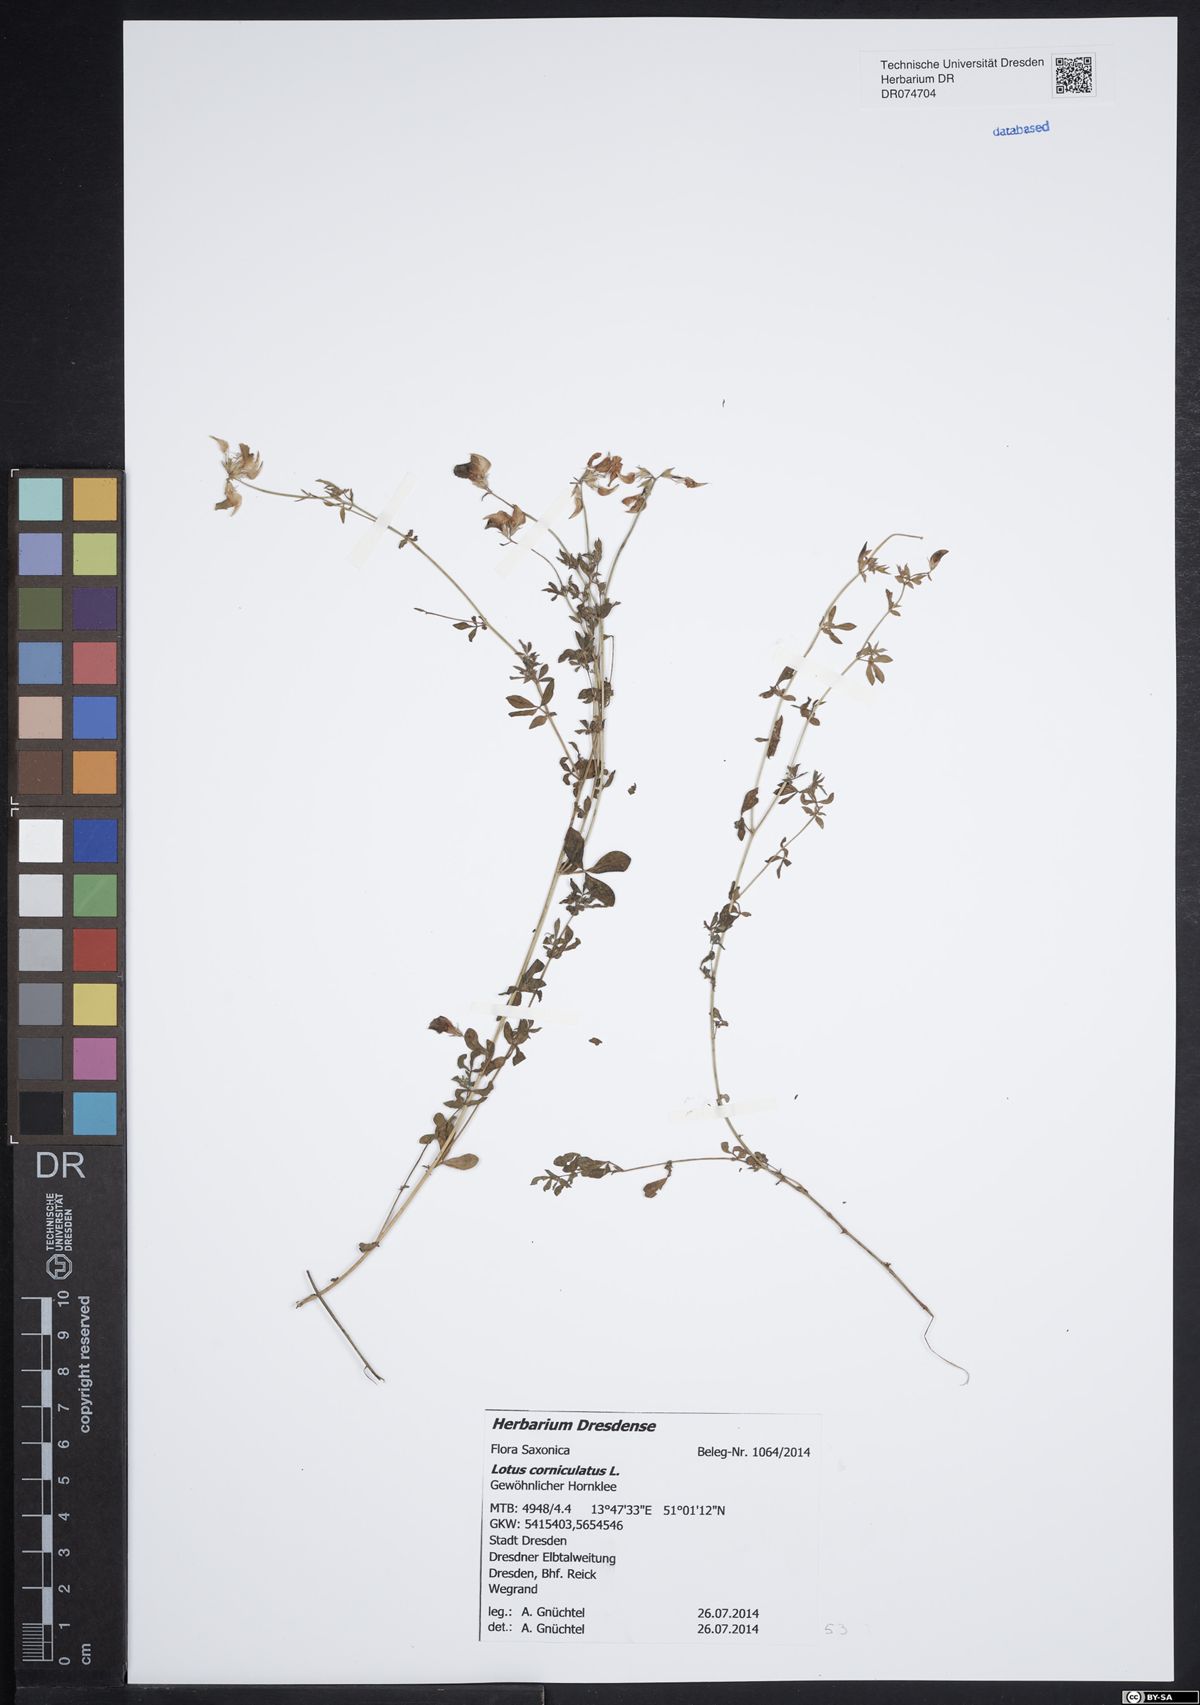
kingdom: Plantae
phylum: Tracheophyta
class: Magnoliopsida
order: Fabales
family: Fabaceae
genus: Lotus
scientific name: Lotus corniculatus
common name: Common bird's-foot-trefoil
